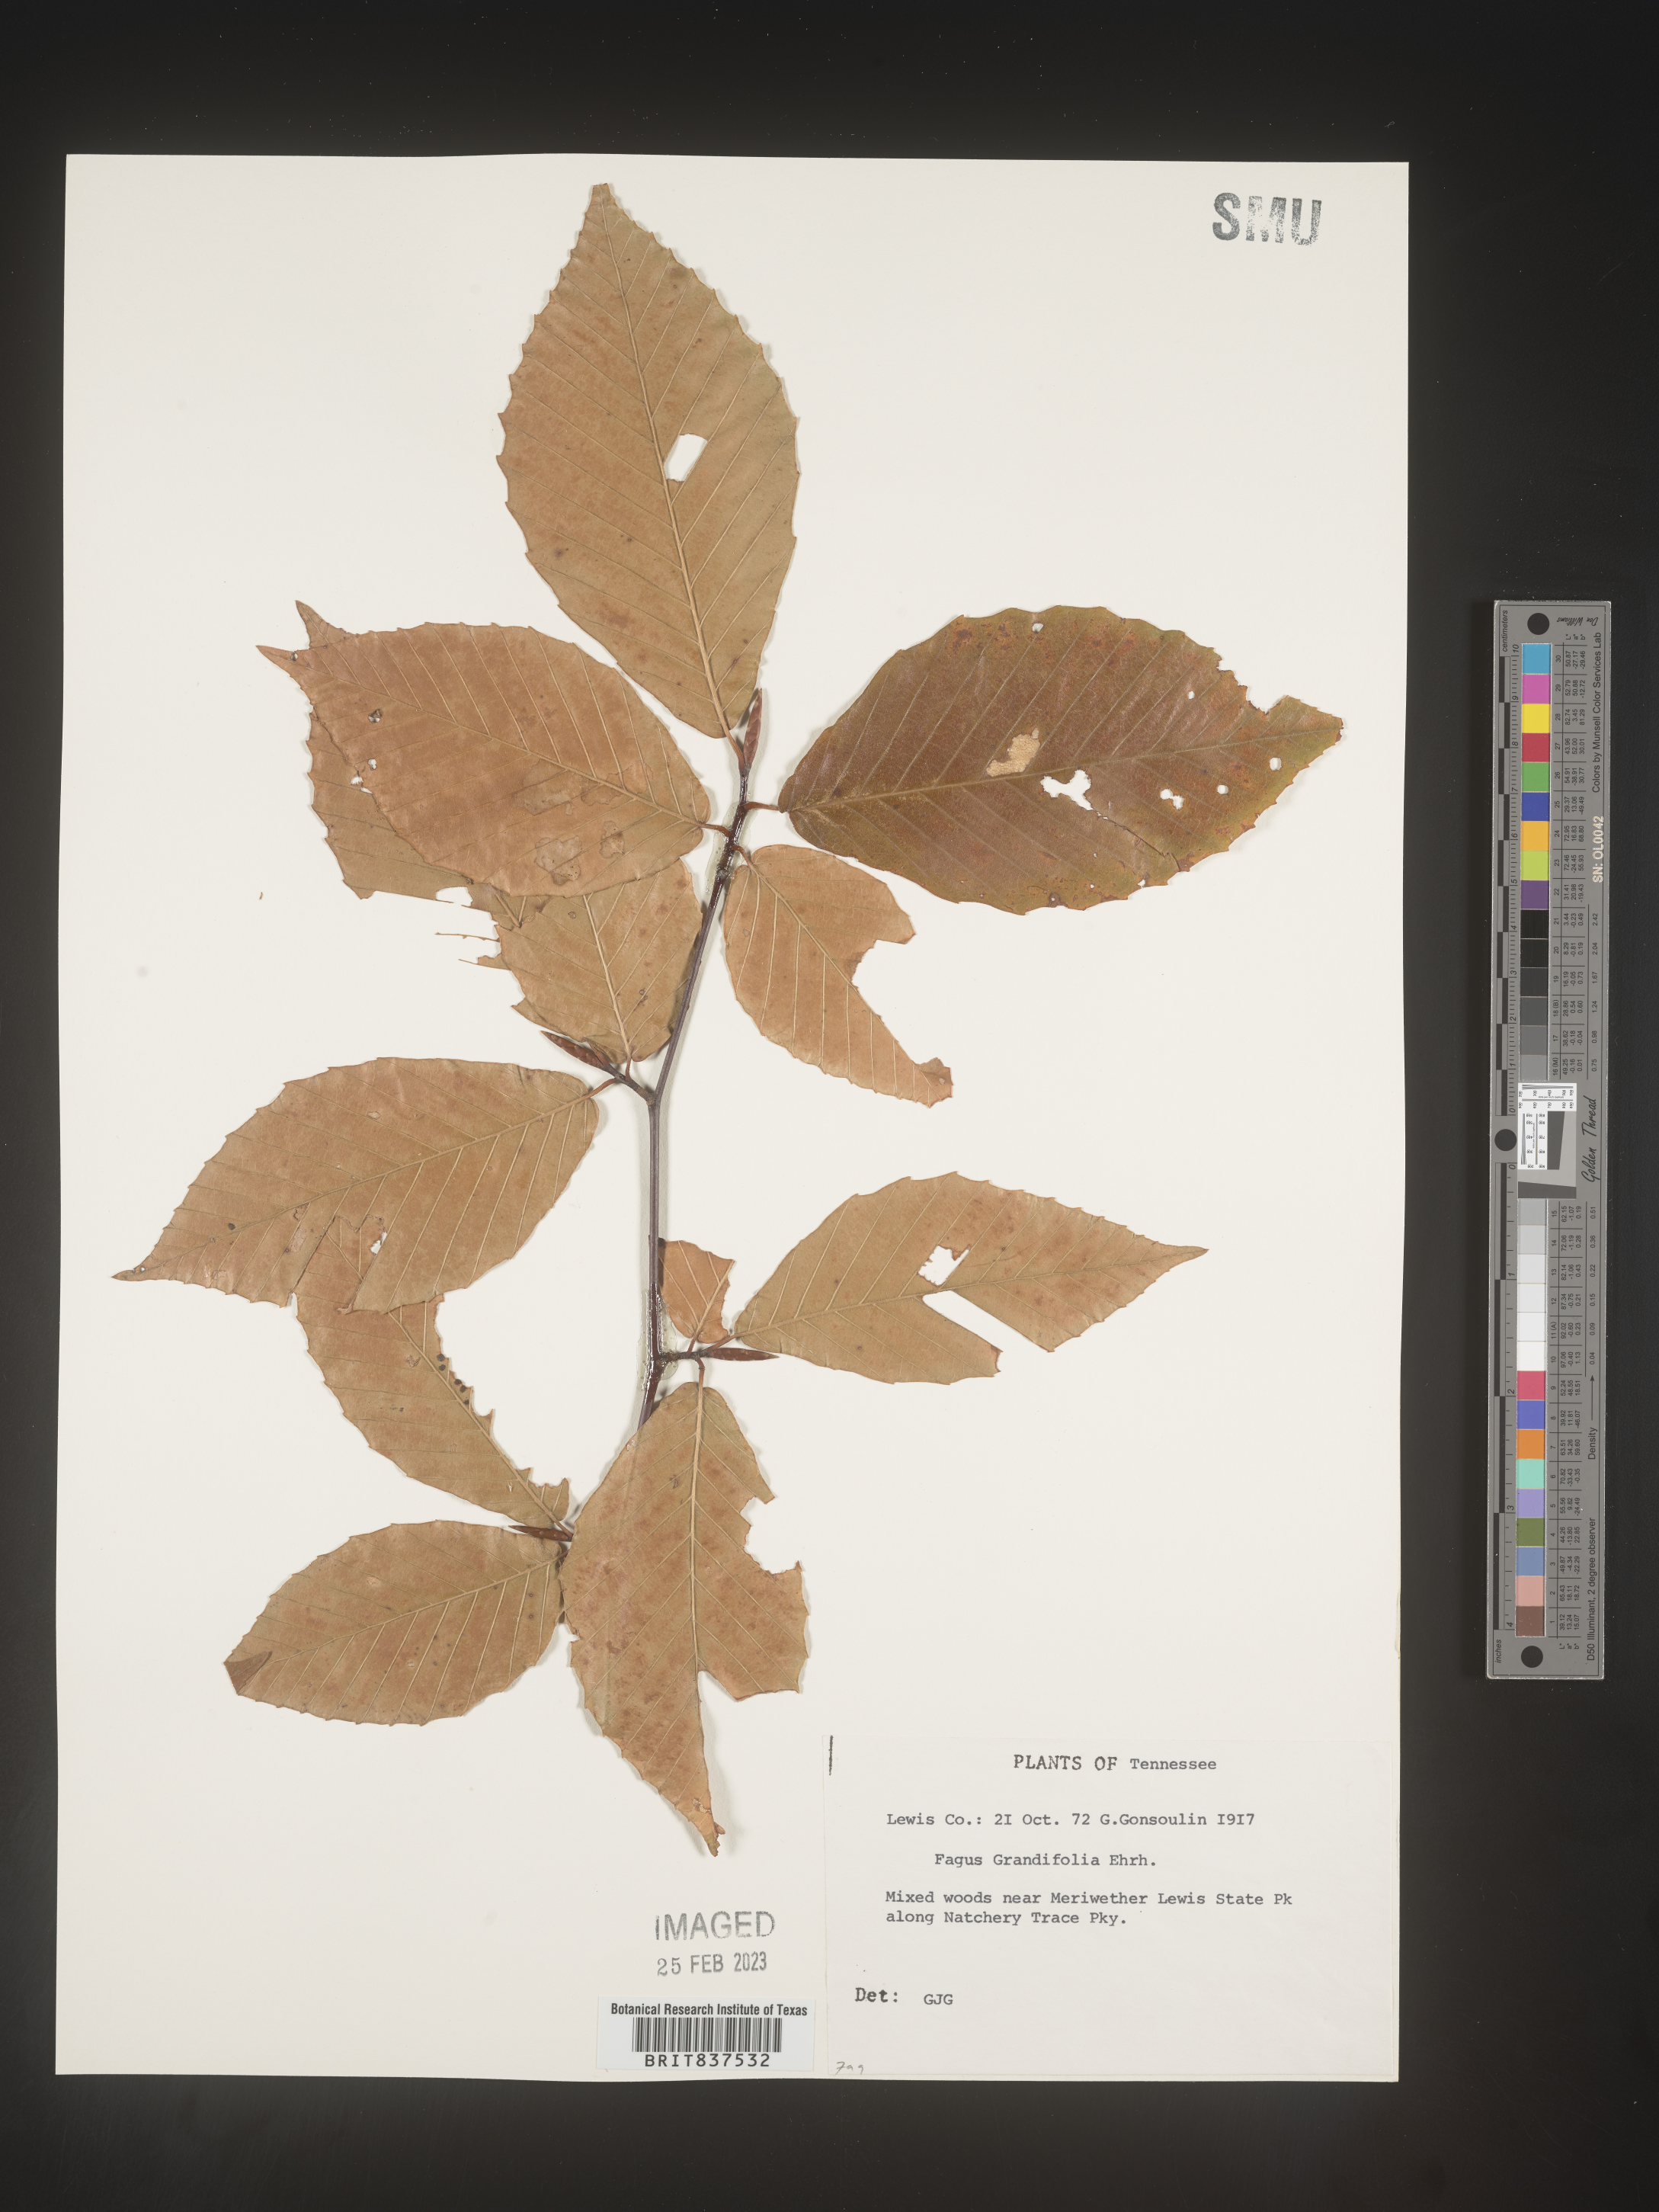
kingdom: Plantae
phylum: Tracheophyta
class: Magnoliopsida
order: Fagales
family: Fagaceae
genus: Fagus
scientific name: Fagus grandifolia
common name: American beech
